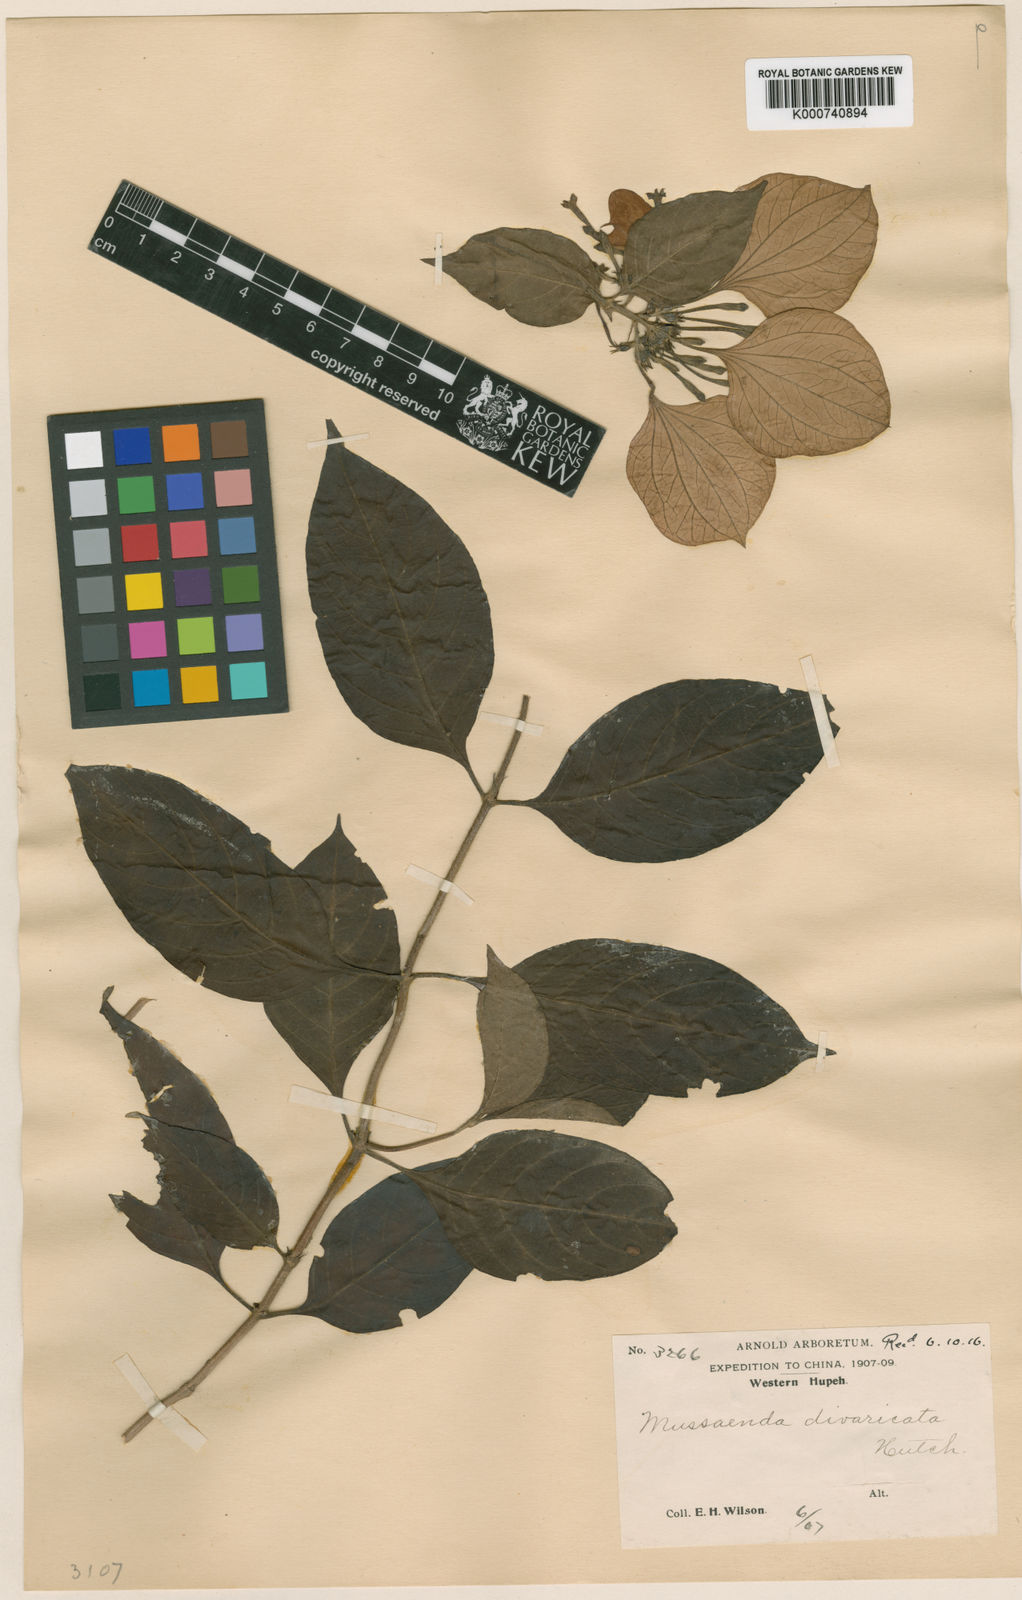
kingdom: Plantae
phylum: Tracheophyta
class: Magnoliopsida
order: Gentianales
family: Rubiaceae
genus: Mussaenda
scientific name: Mussaenda divaricata
